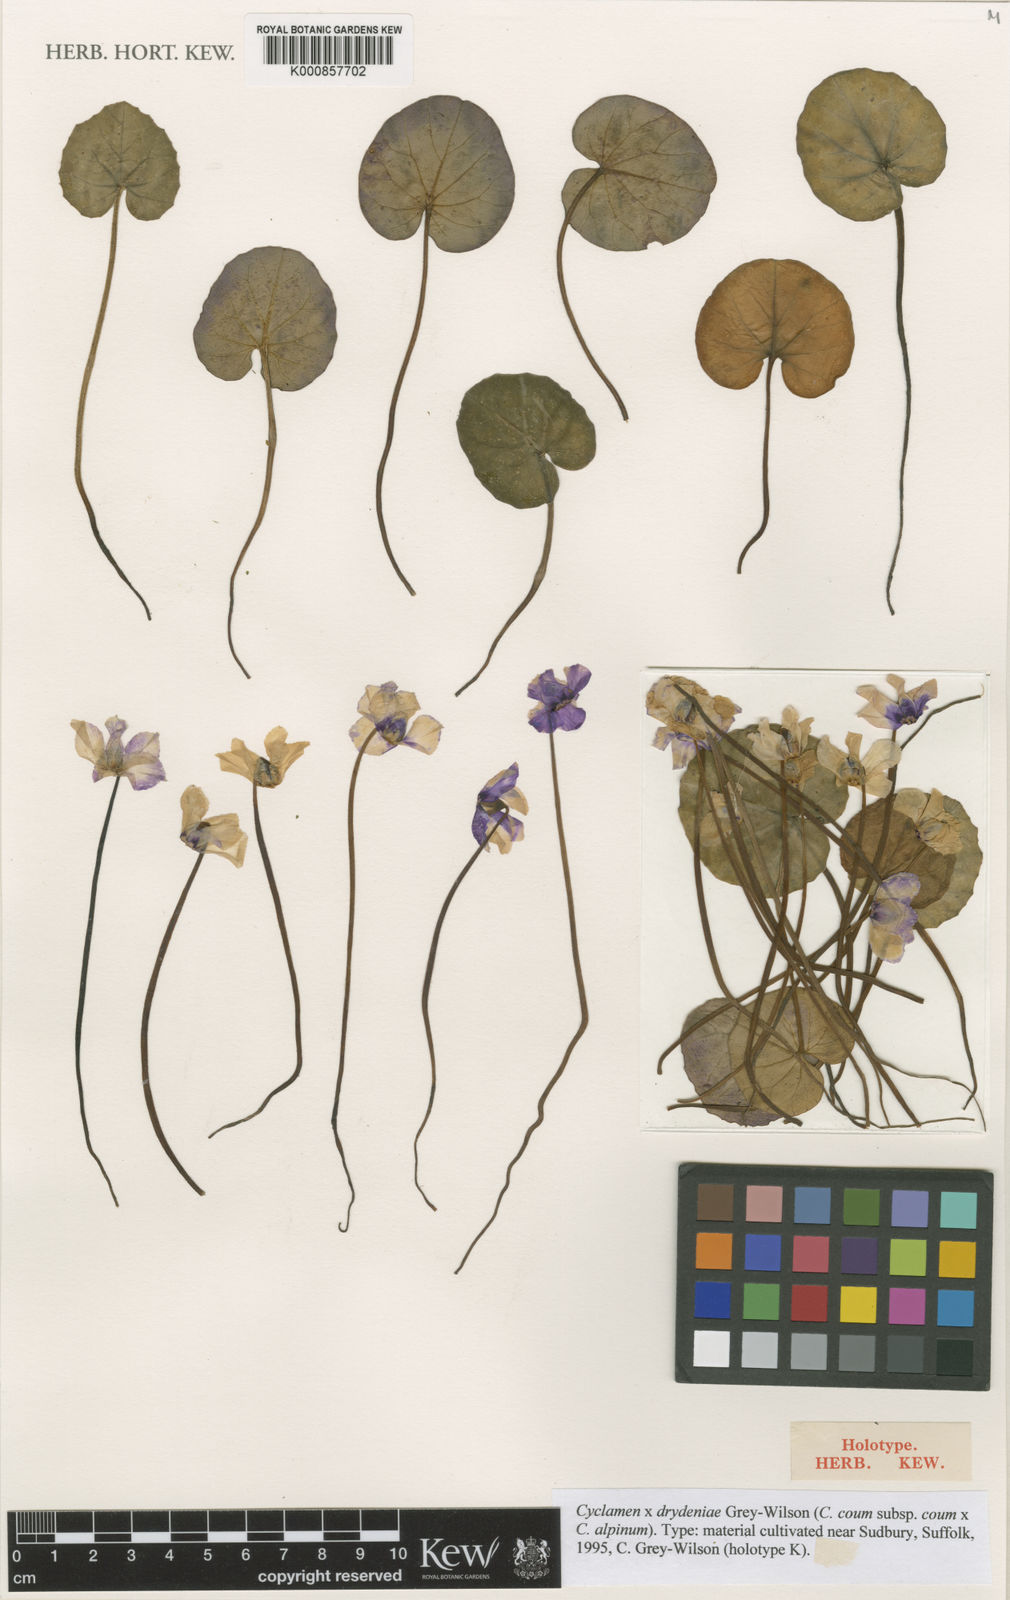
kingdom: Plantae
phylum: Tracheophyta
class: Magnoliopsida
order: Ericales
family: Primulaceae
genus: Cyclamen
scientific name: Cyclamen drydeniae
